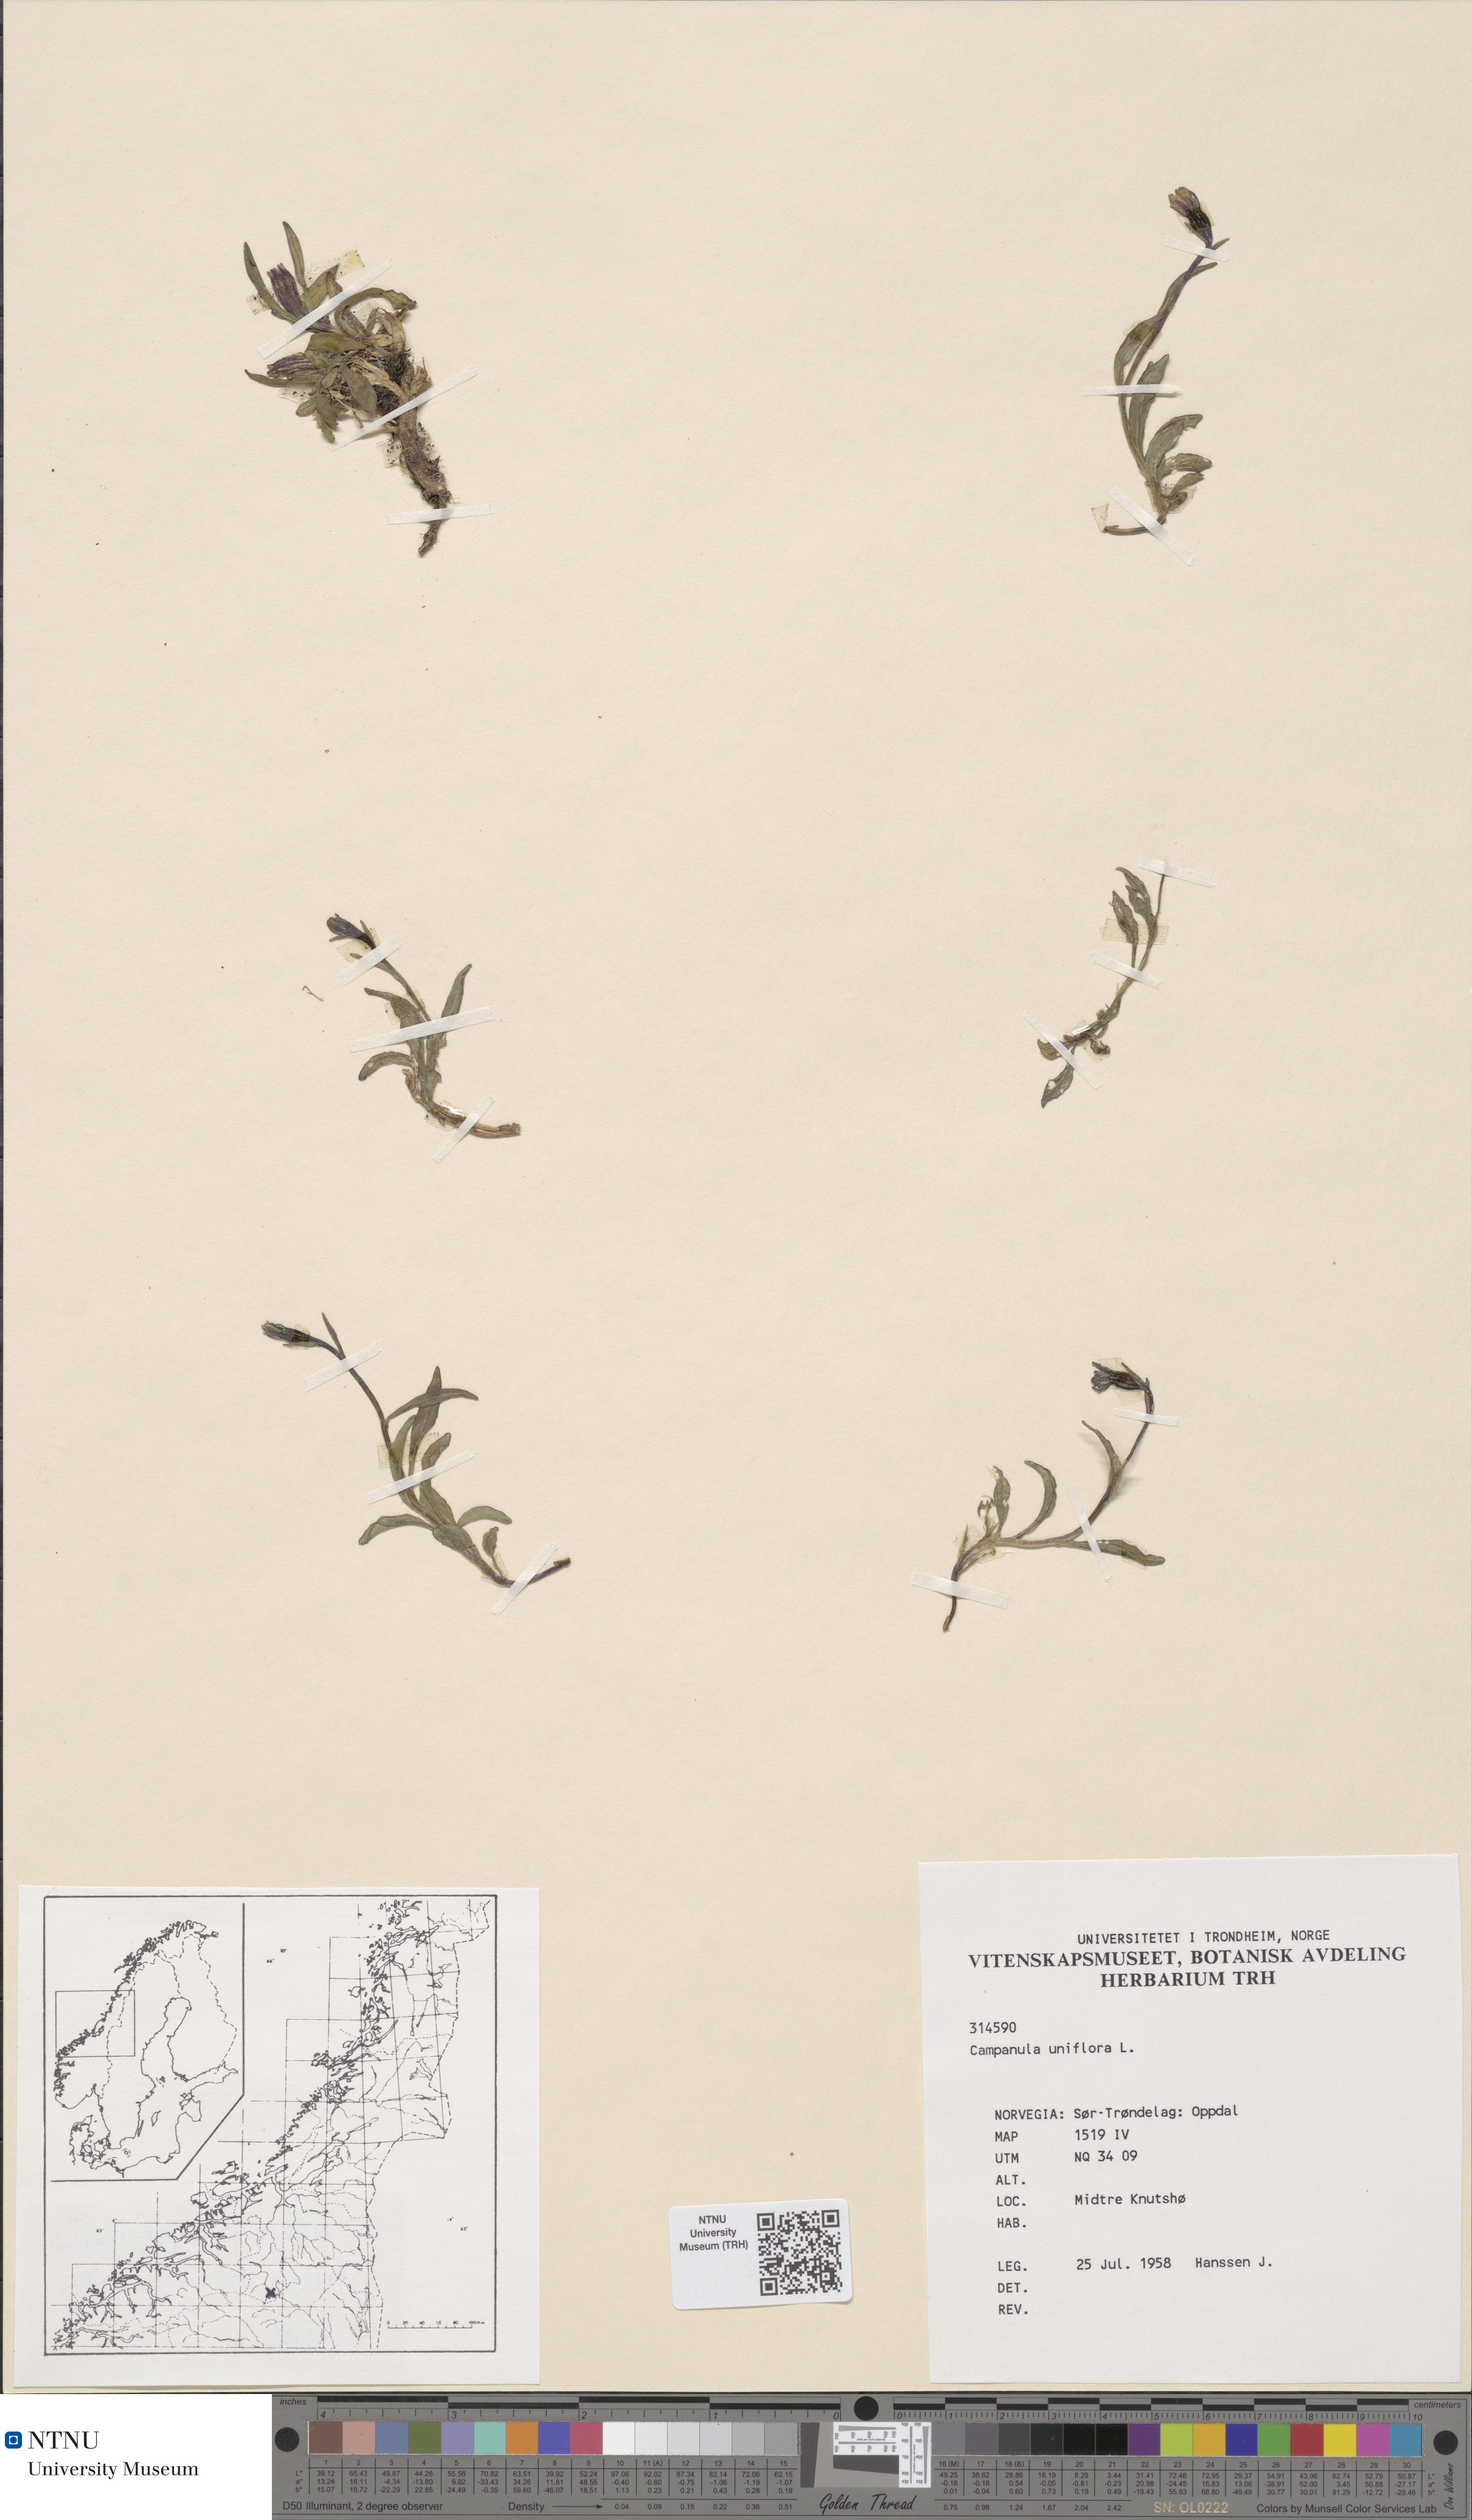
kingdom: Plantae
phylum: Tracheophyta
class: Magnoliopsida
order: Asterales
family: Campanulaceae
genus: Melanocalyx
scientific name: Melanocalyx uniflora
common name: Alpine harebell
